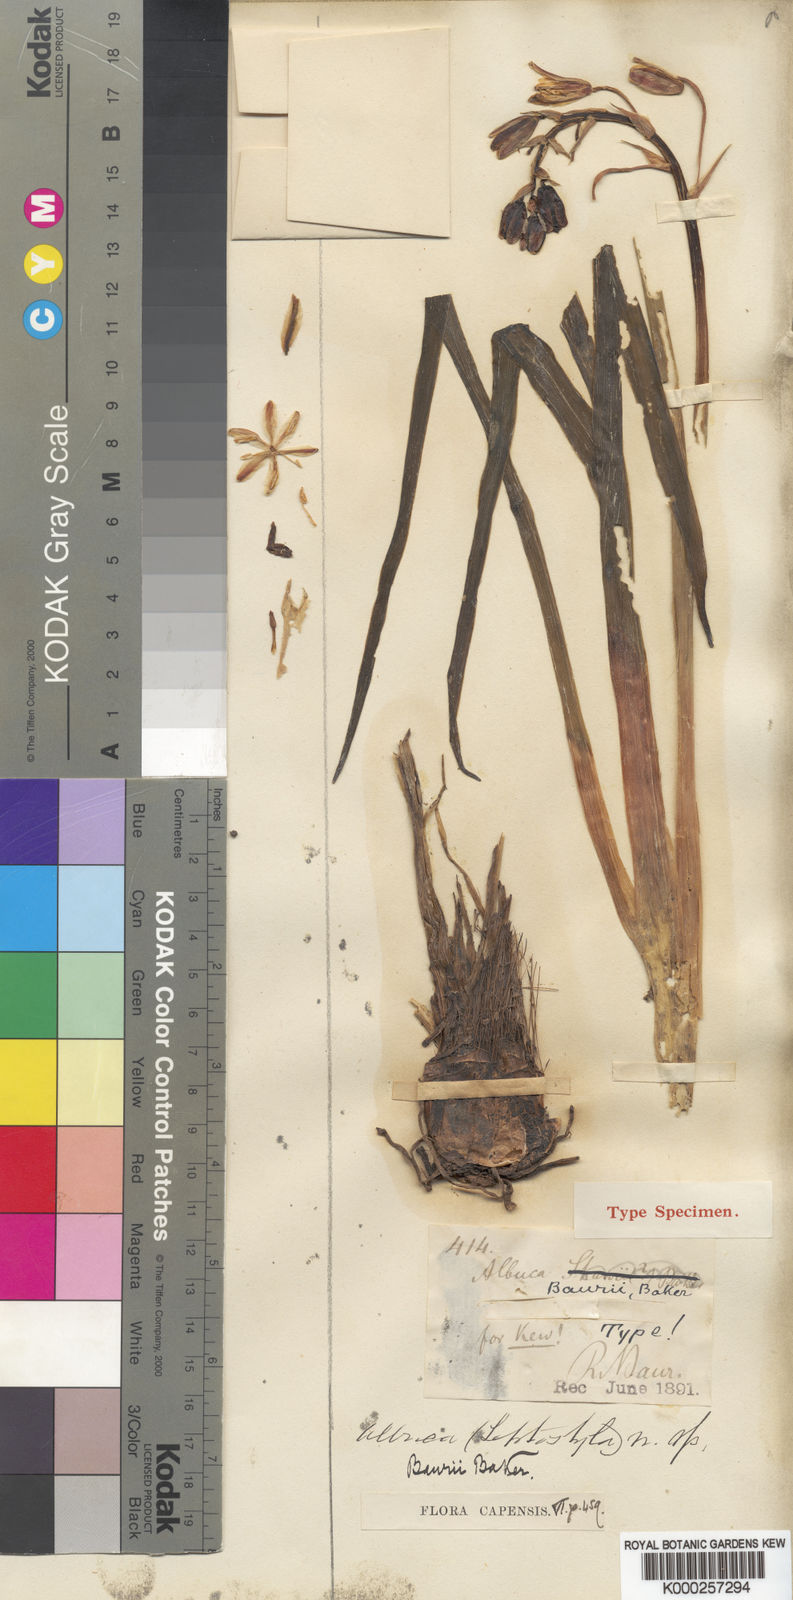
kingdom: Plantae
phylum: Tracheophyta
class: Liliopsida
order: Asparagales
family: Asparagaceae
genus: Albuca
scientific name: Albuca setosa
